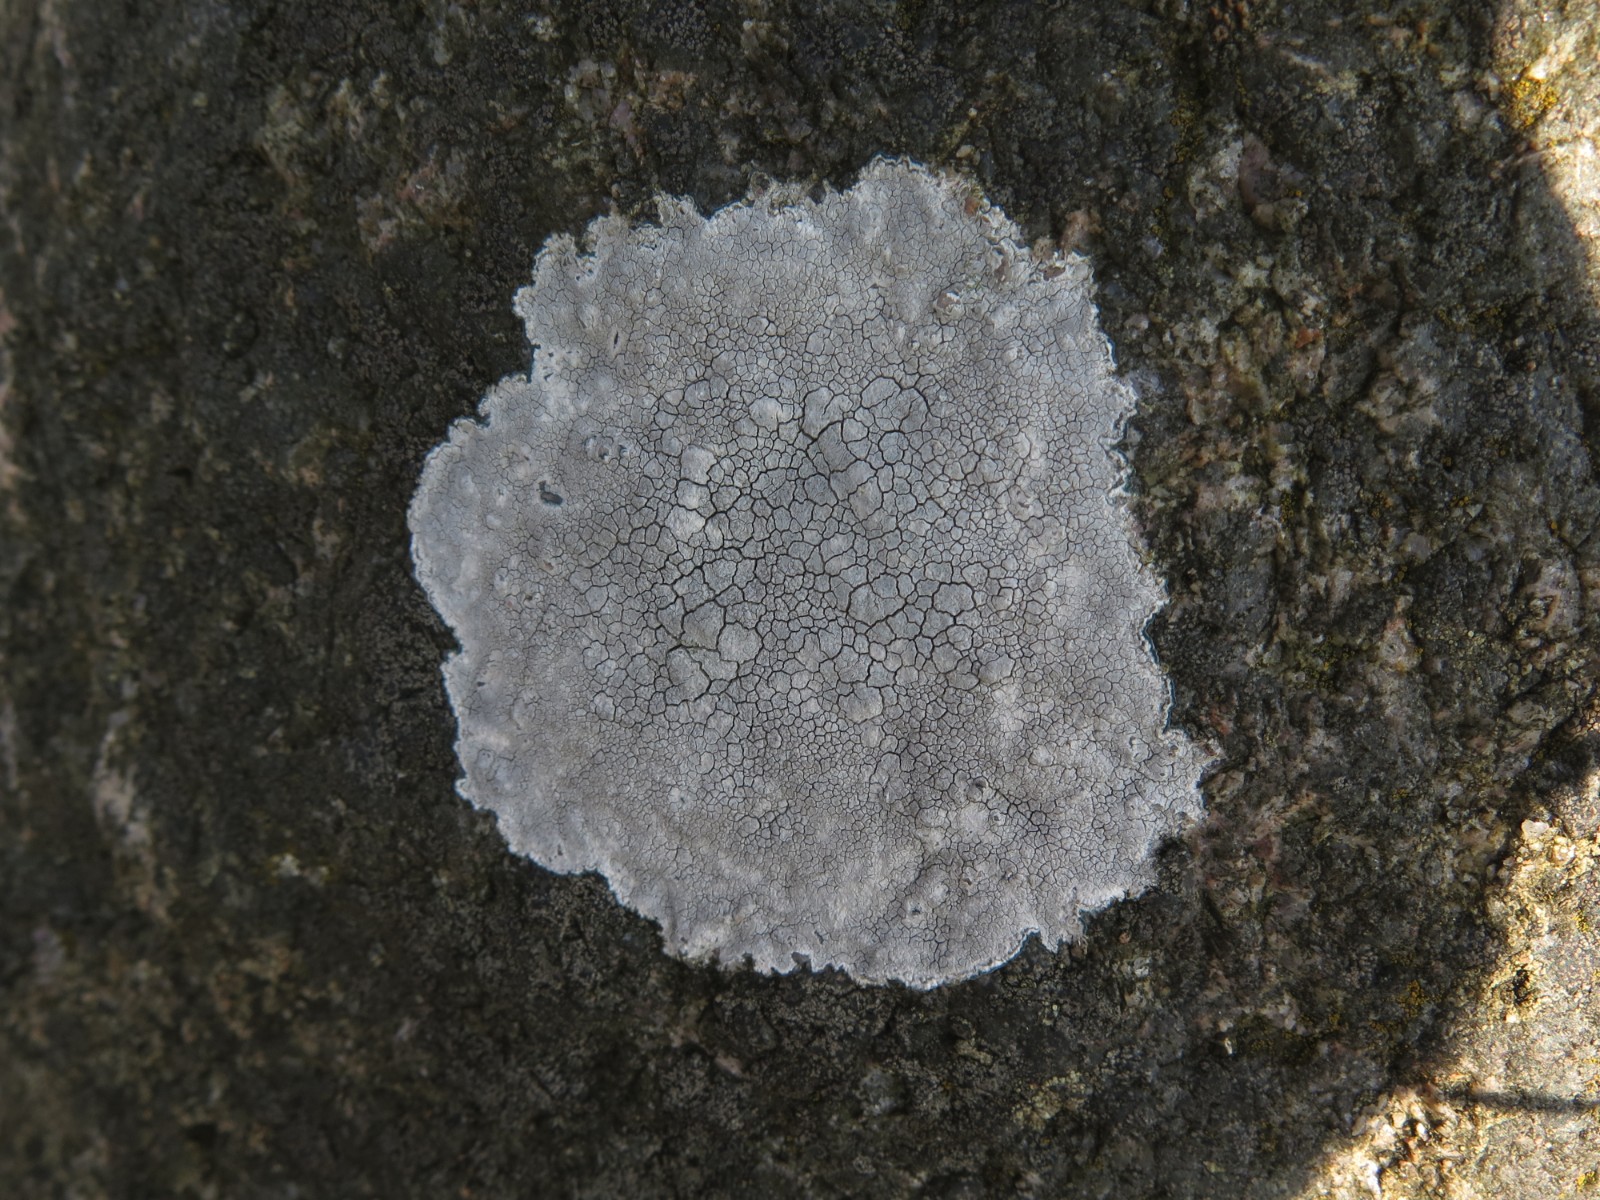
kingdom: Fungi
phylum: Ascomycota
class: Lecanoromycetes
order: Lecanorales
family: Lecanoraceae
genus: Glaucomaria
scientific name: Glaucomaria rupicola
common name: stengærde-kantskivelav
